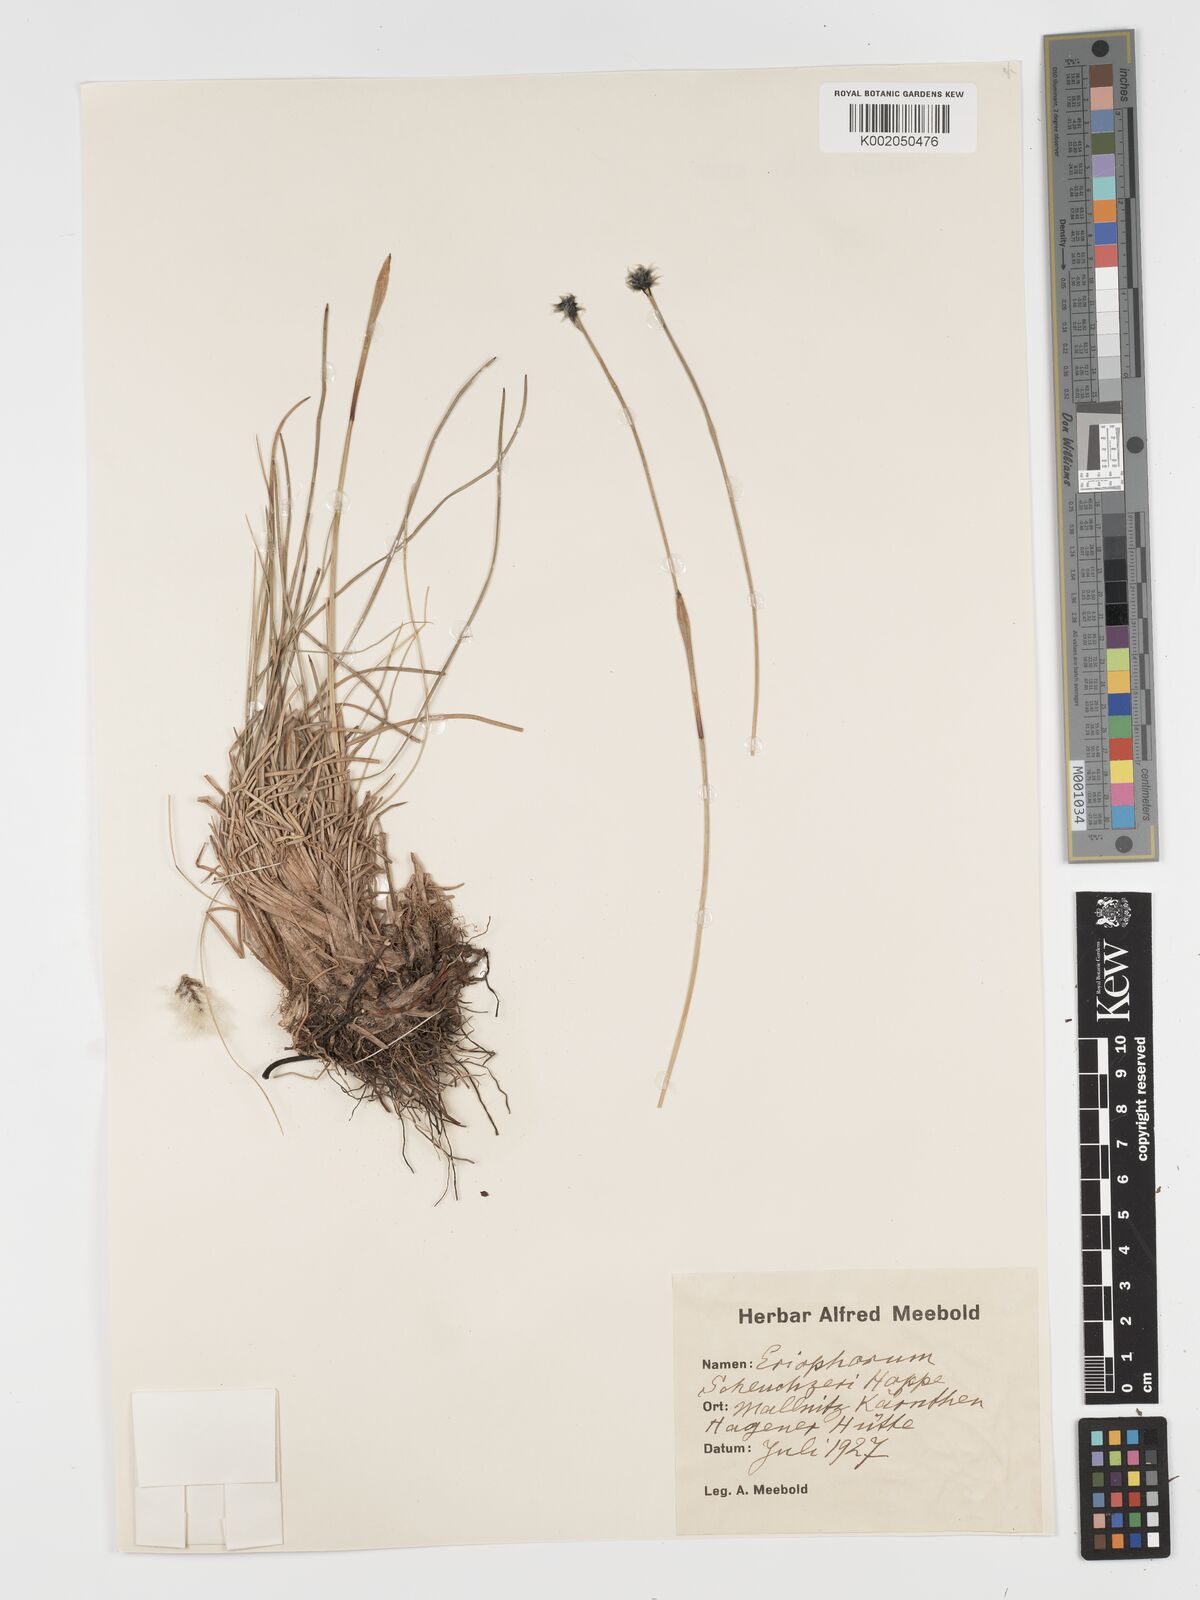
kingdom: Plantae
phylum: Tracheophyta
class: Liliopsida
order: Poales
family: Cyperaceae
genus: Eriophorum
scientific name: Eriophorum scheuchzeri
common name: Scheuchzer's cottongrass
